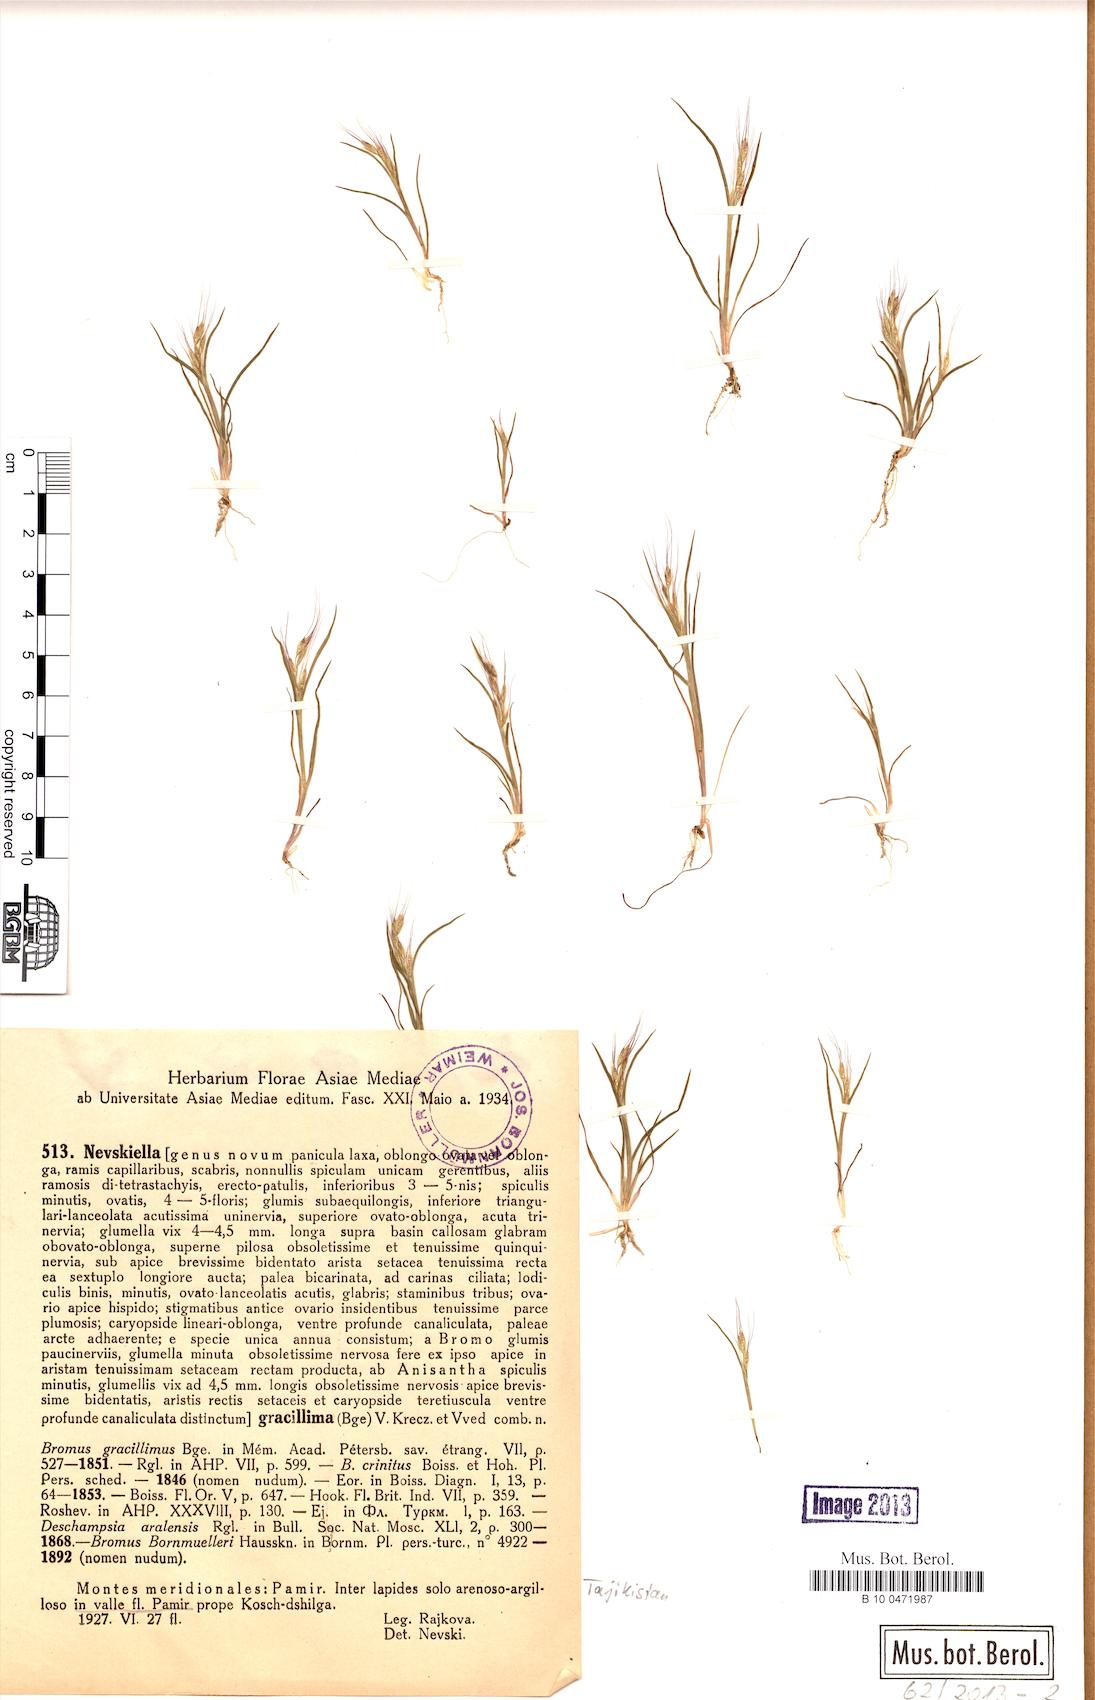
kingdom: Plantae
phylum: Tracheophyta
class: Liliopsida
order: Poales
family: Poaceae
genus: Bromus
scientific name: Bromus gracillimus
